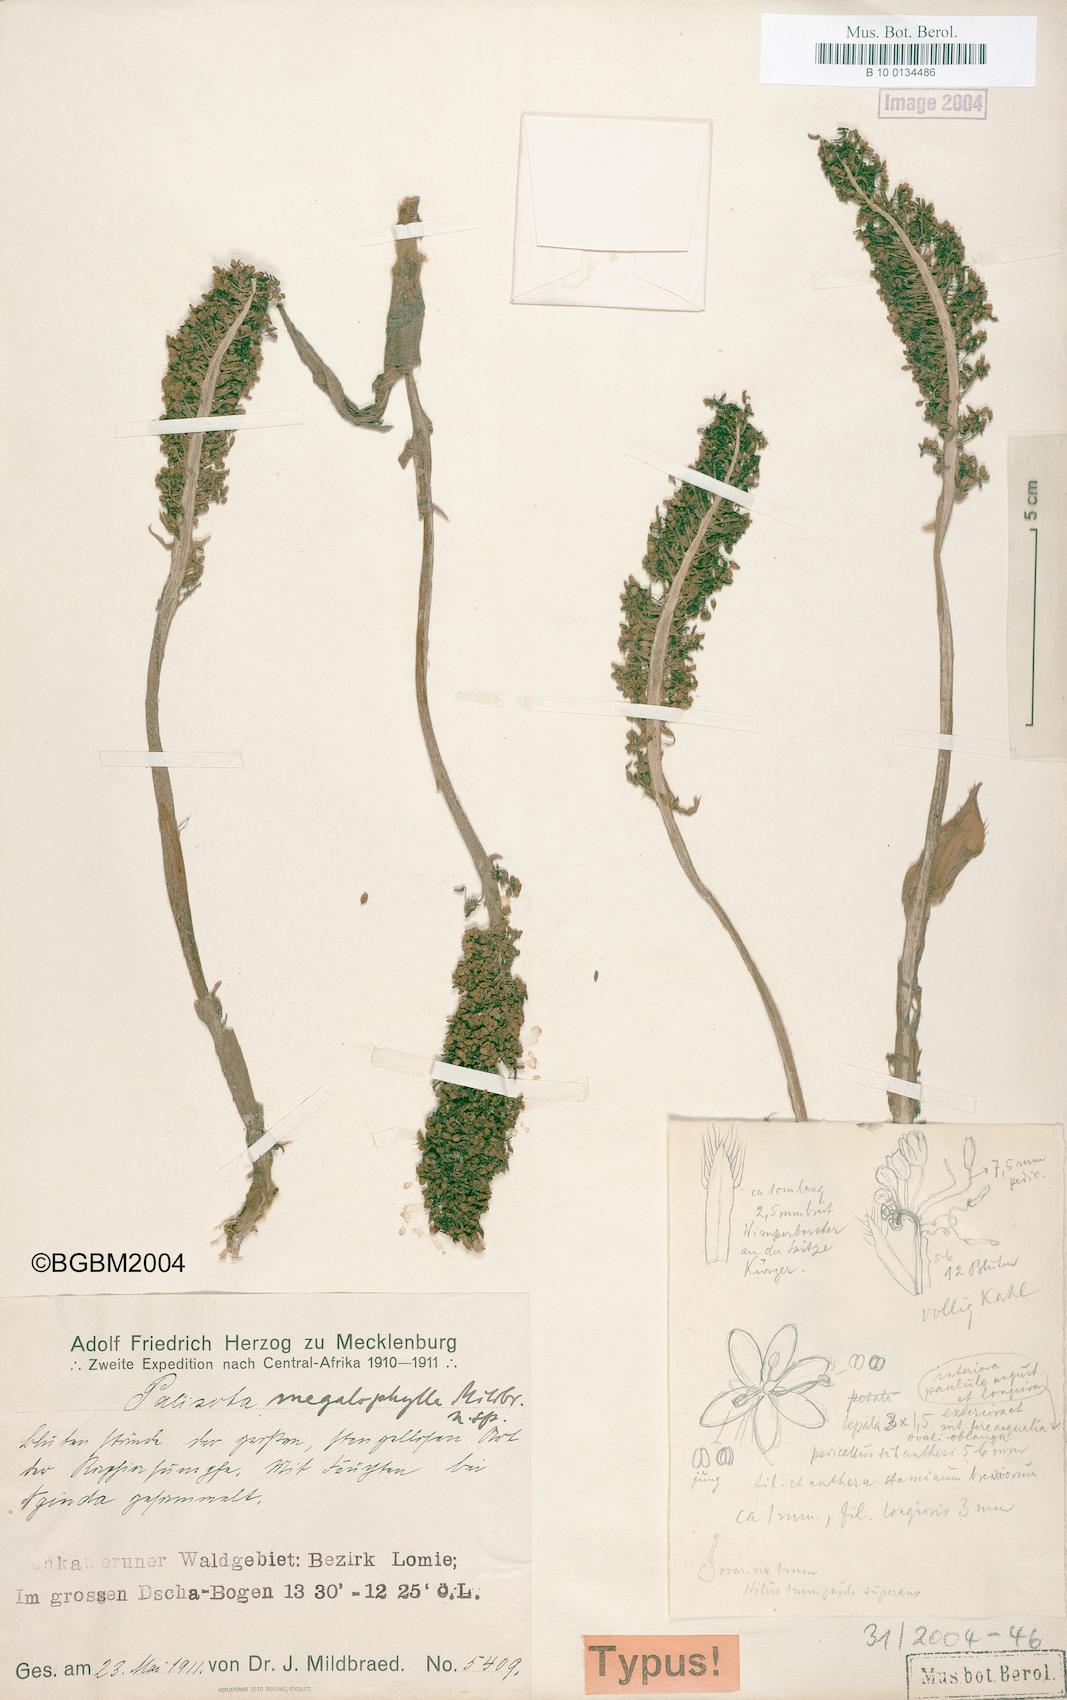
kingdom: Plantae
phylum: Tracheophyta
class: Liliopsida
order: Commelinales
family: Commelinaceae
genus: Palisota
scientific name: Palisota mannii
